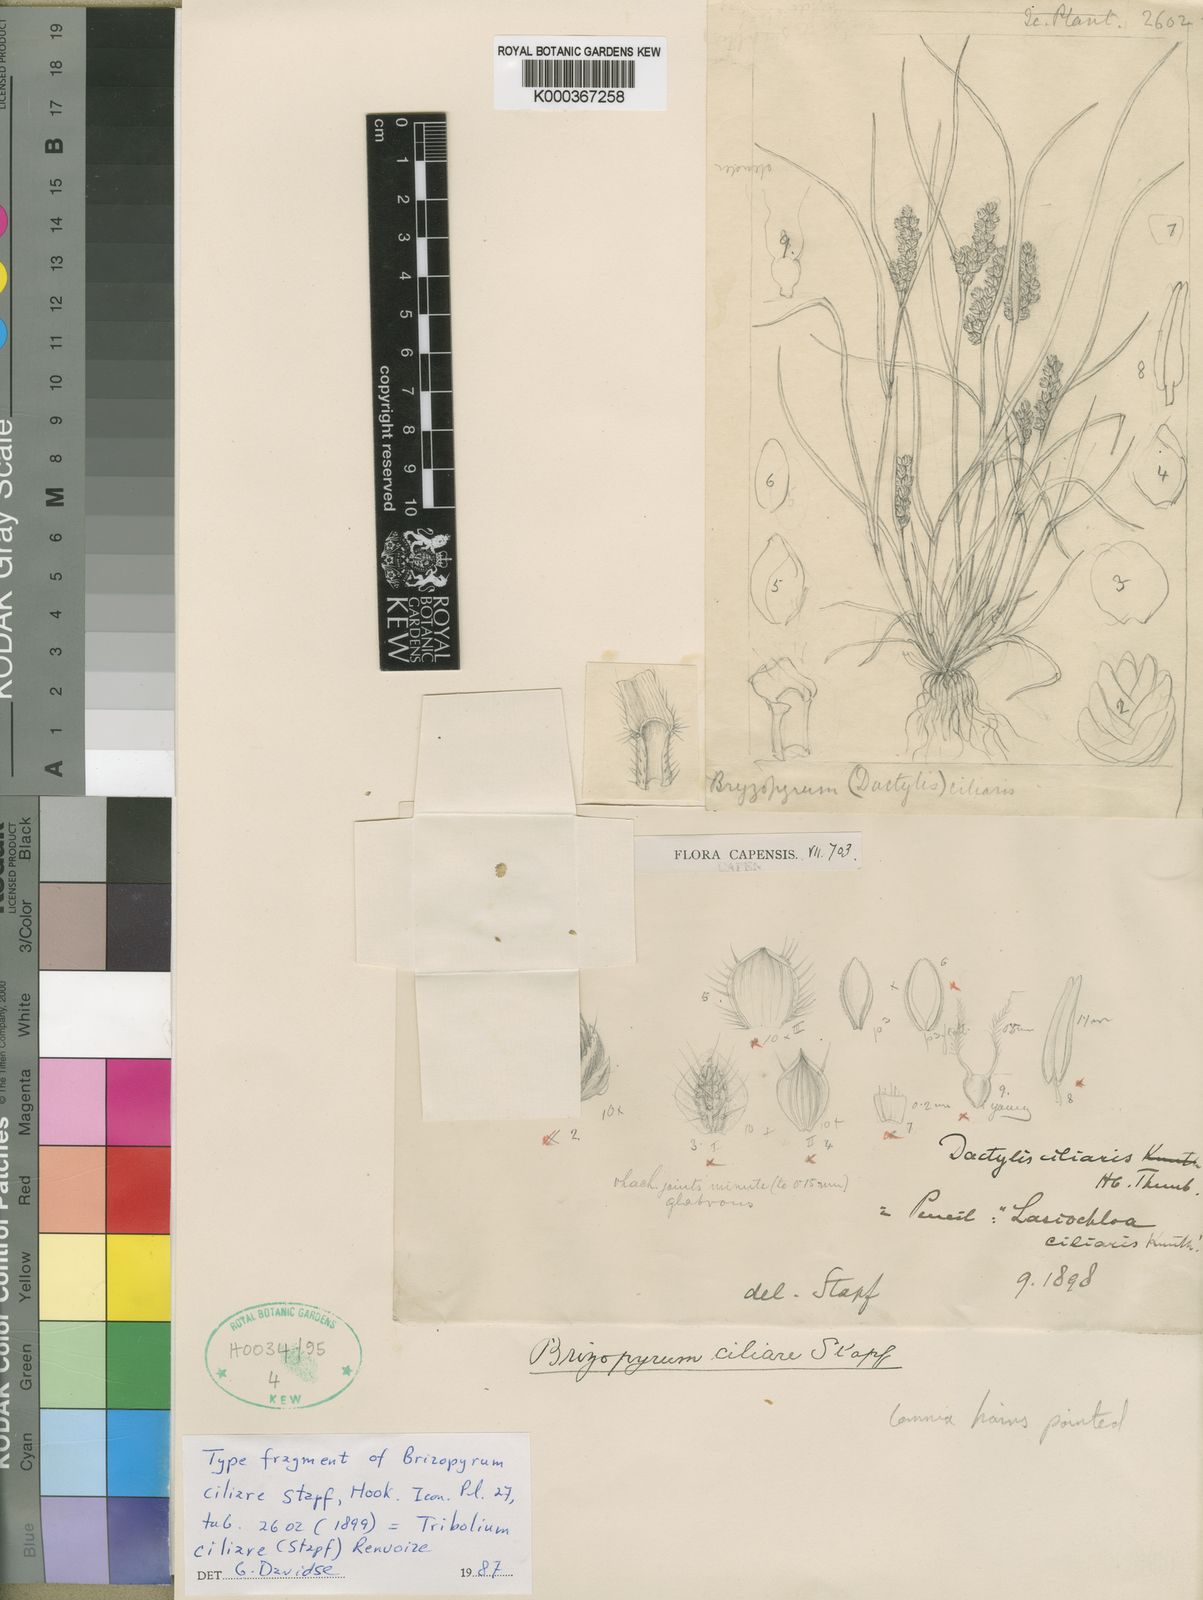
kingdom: Plantae
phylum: Tracheophyta
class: Liliopsida
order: Poales
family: Poaceae
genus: Tribolium
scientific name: Tribolium ciliare
